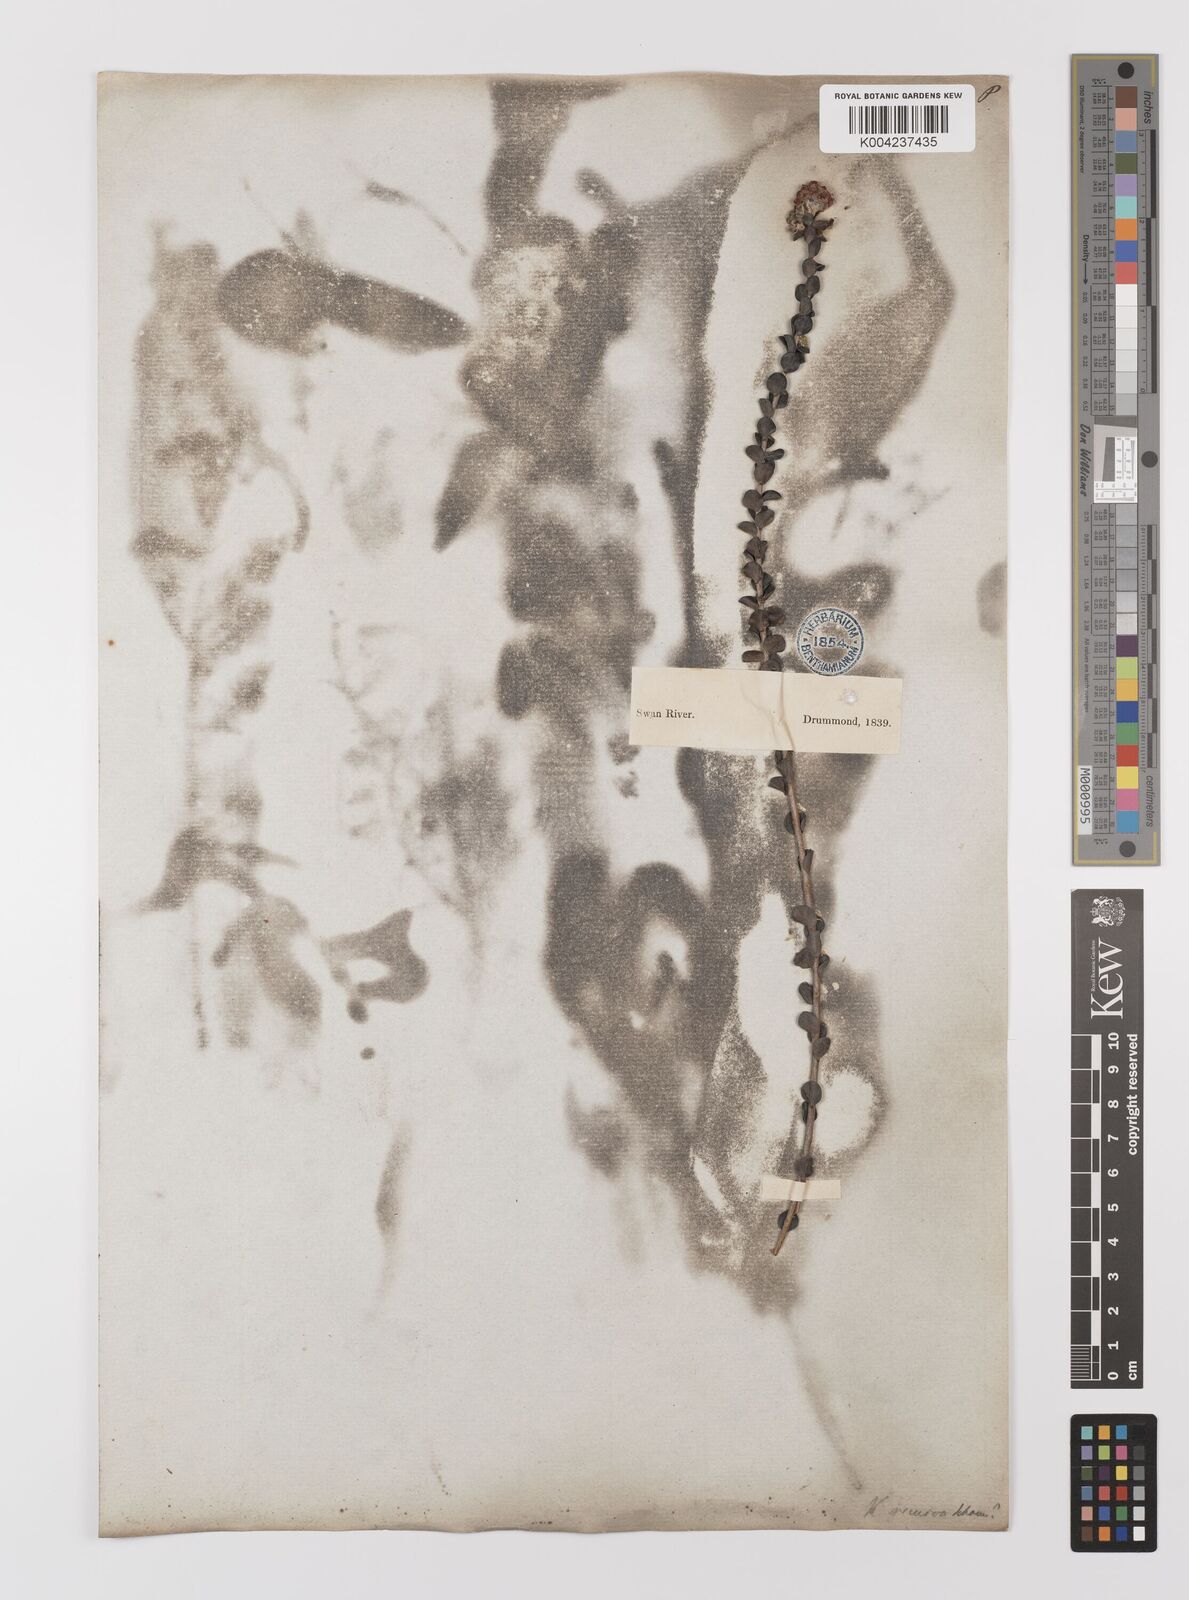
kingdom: Plantae
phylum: Tracheophyta
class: Magnoliopsida
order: Myrtales
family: Myrtaceae
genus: Melaleuca
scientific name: Melaleuca
